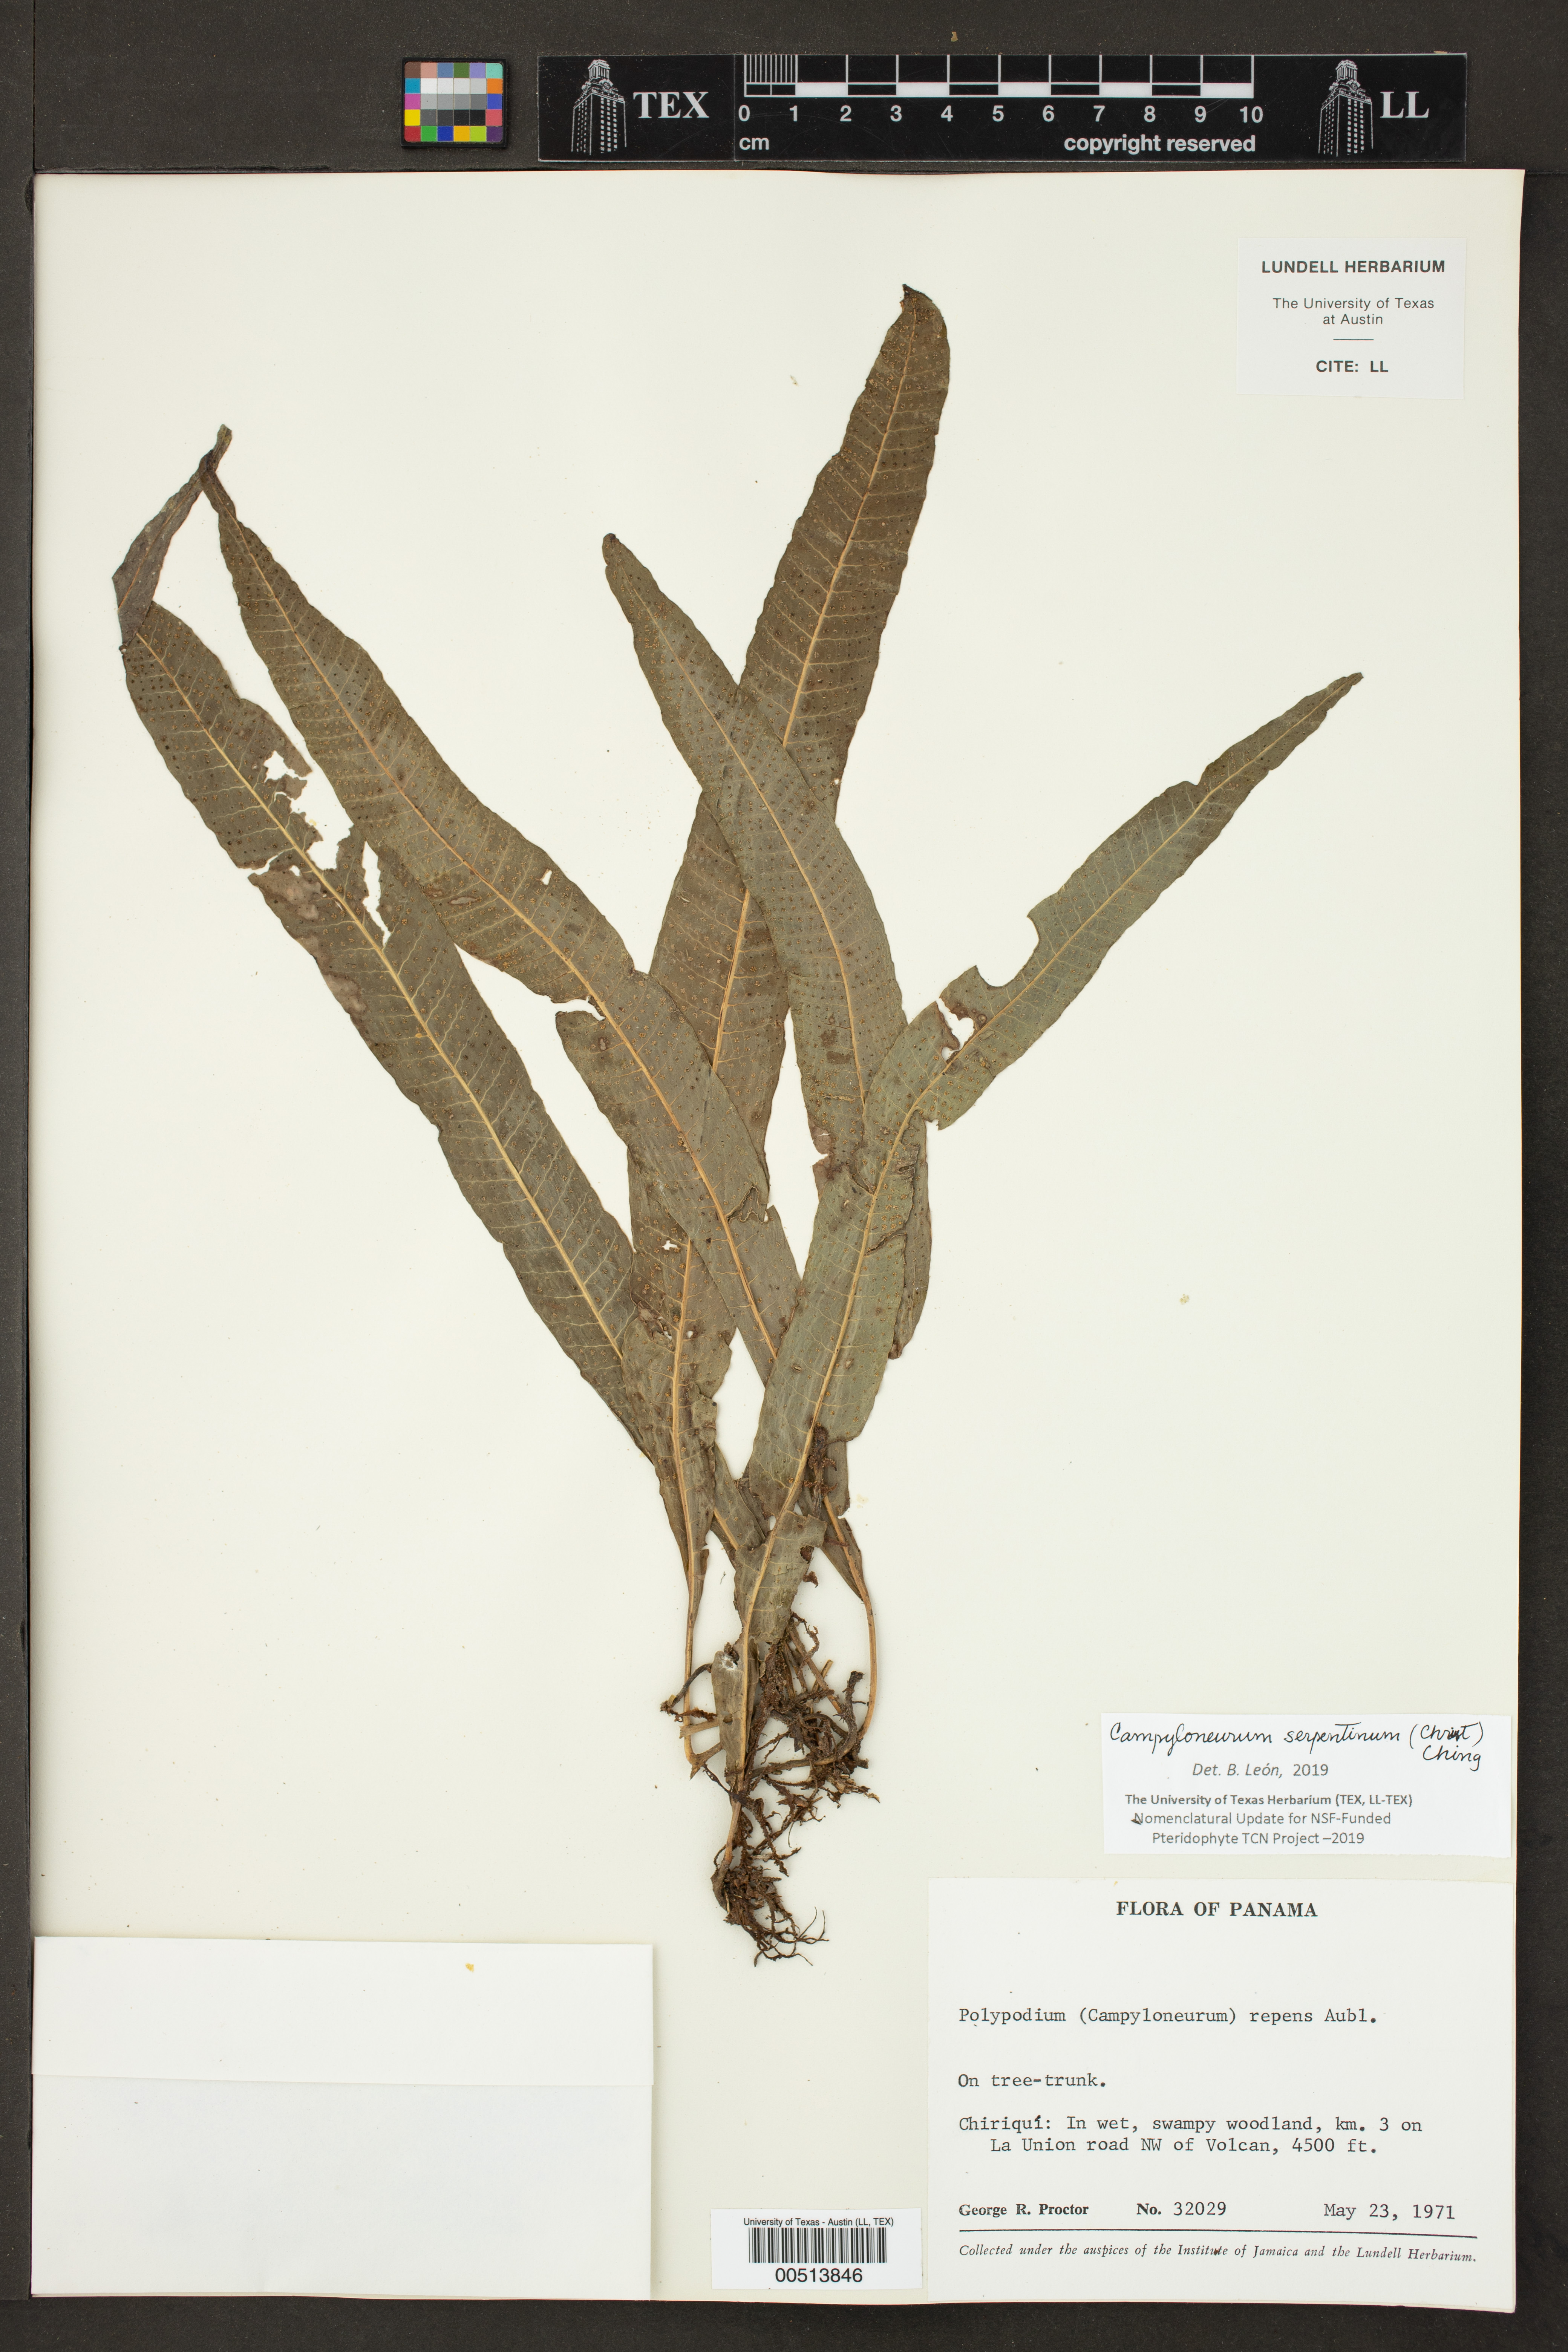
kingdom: Plantae
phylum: Tracheophyta
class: Polypodiopsida
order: Polypodiales
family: Polypodiaceae
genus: Campyloneurum
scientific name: Campyloneurum repens
